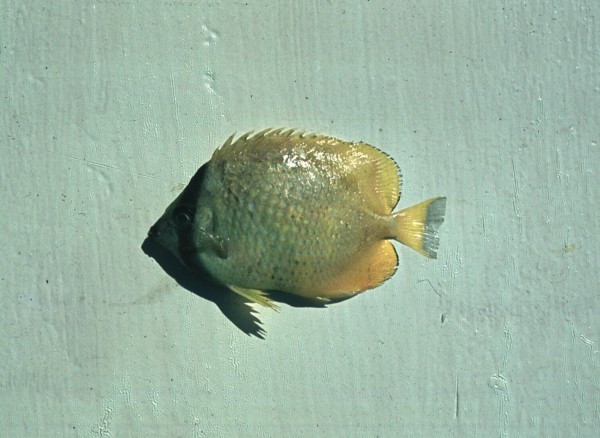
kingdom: Animalia
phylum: Chordata
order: Perciformes
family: Chaetodontidae
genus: Chaetodon
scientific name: Chaetodon kleinii
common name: Klein's butterflyfish
